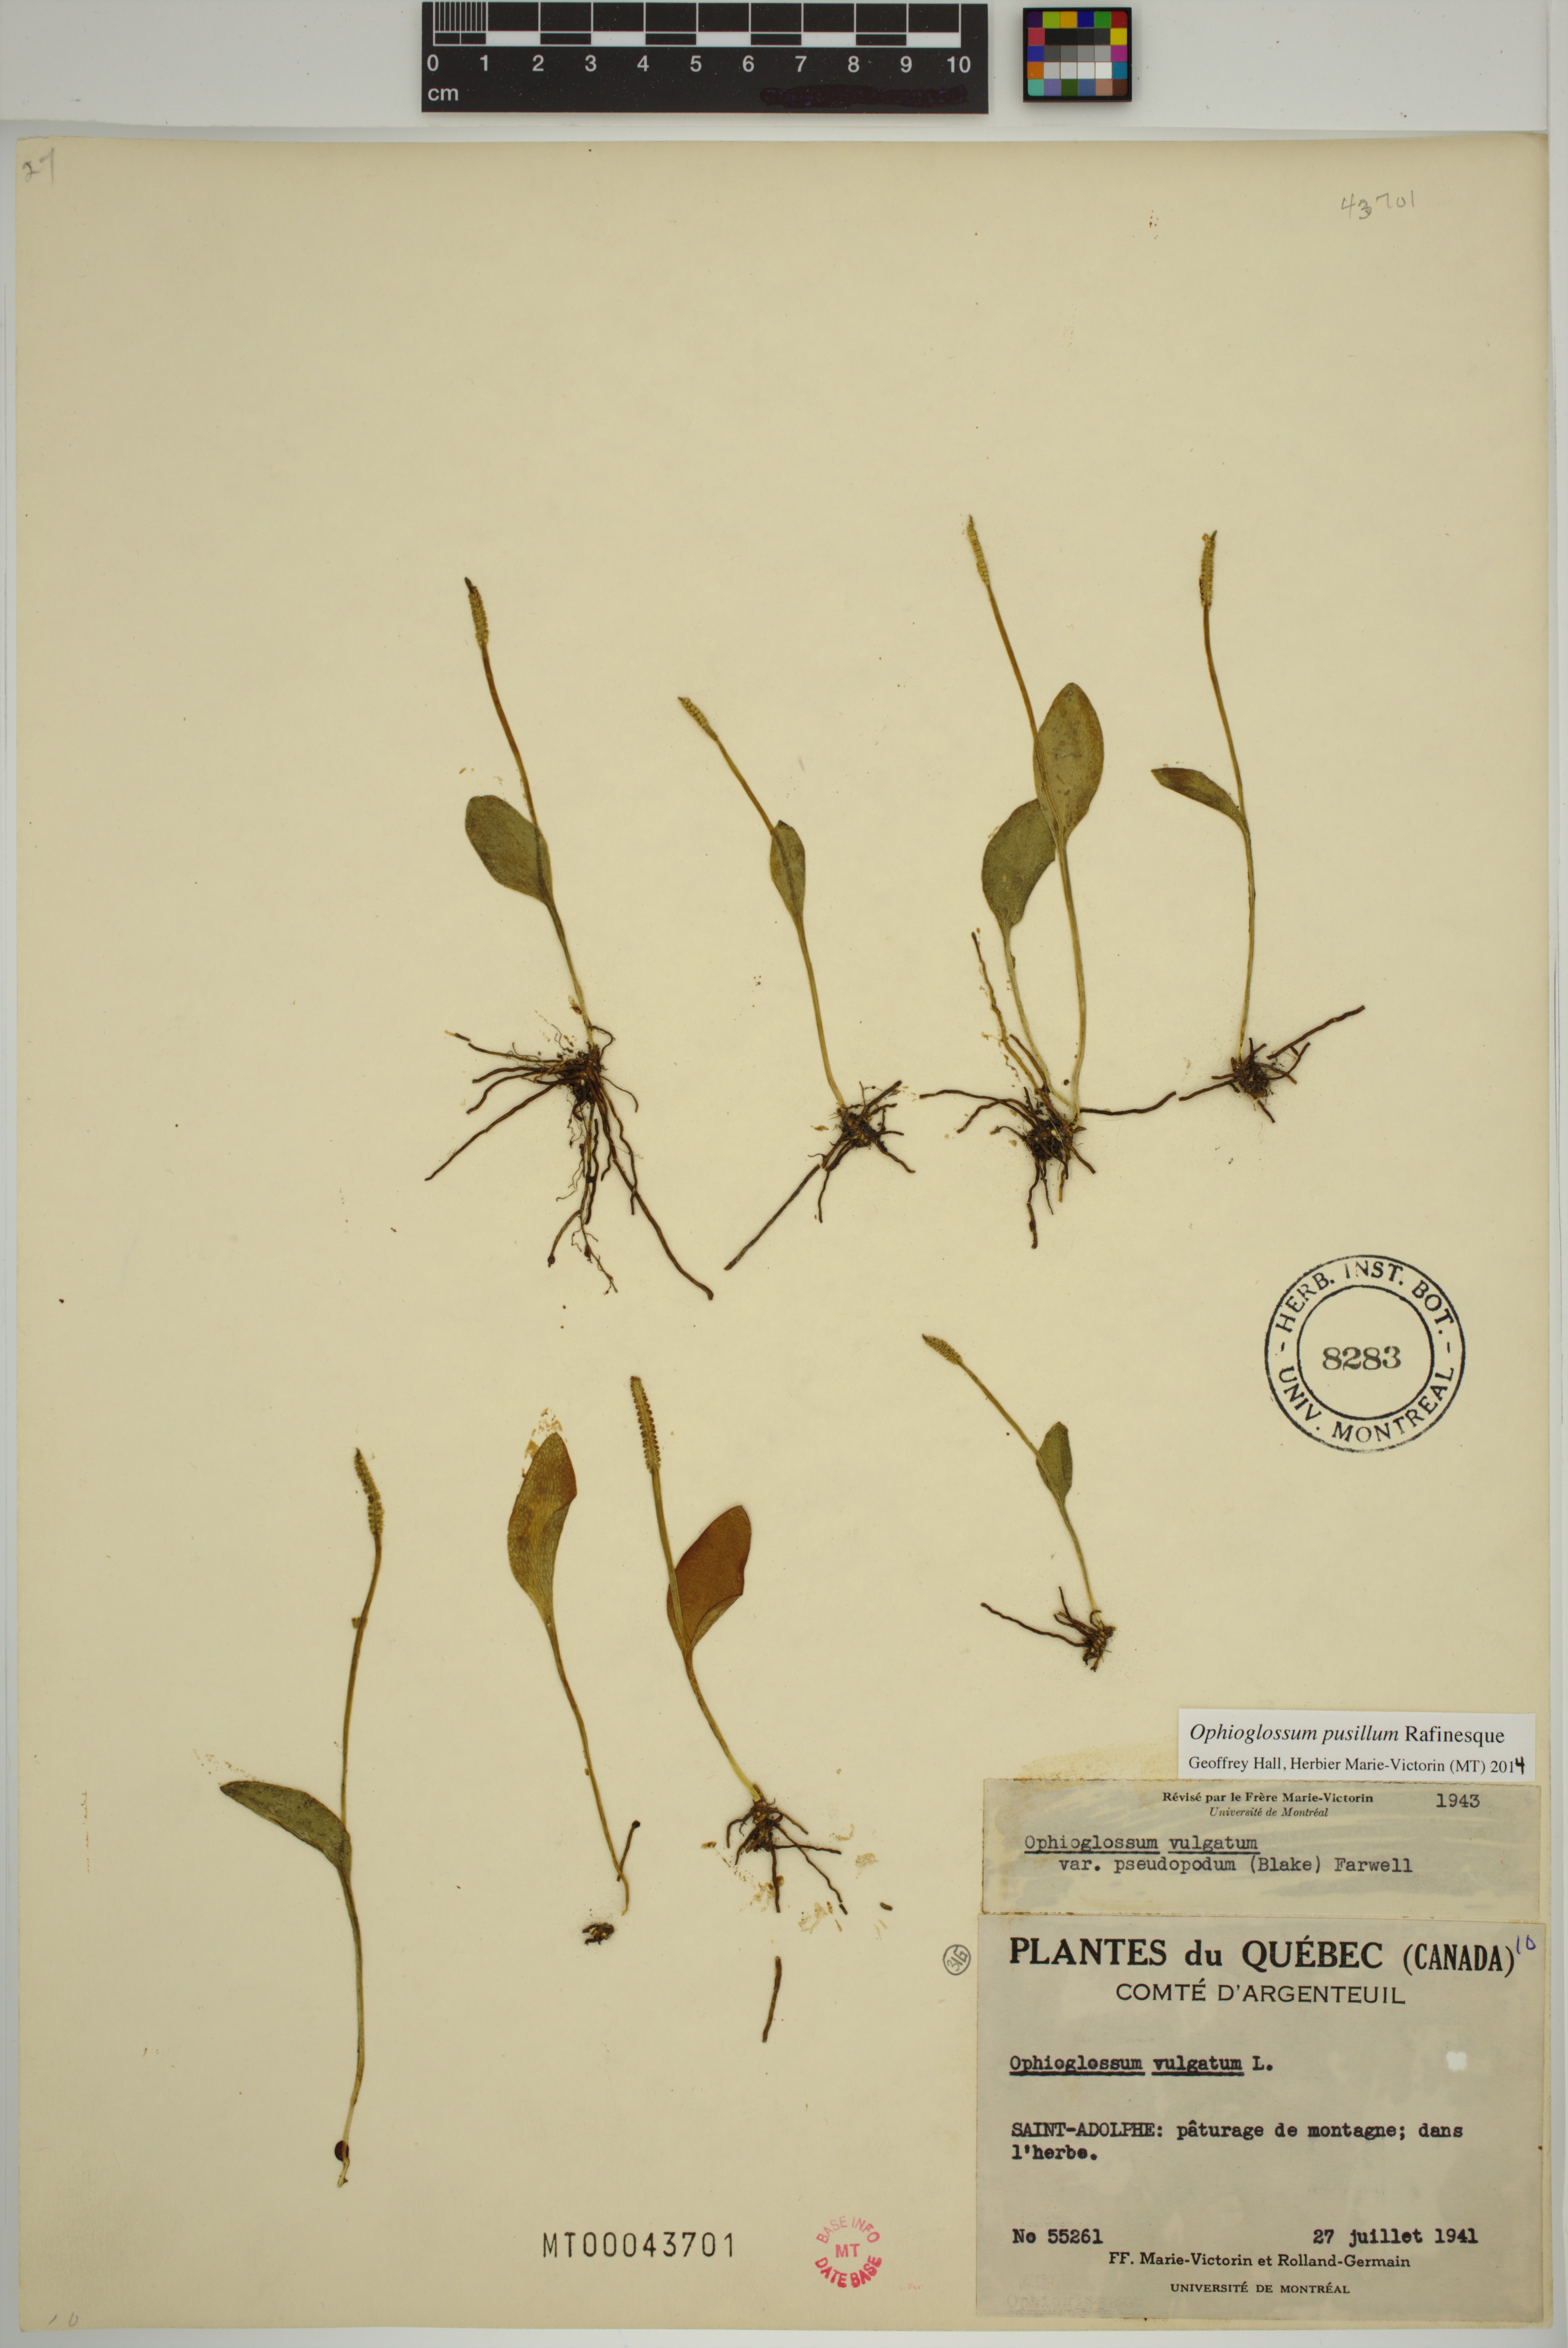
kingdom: Plantae
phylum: Tracheophyta
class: Polypodiopsida
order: Ophioglossales
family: Ophioglossaceae
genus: Ophioglossum
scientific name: Ophioglossum pusillum
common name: Northern adder's-tongue
